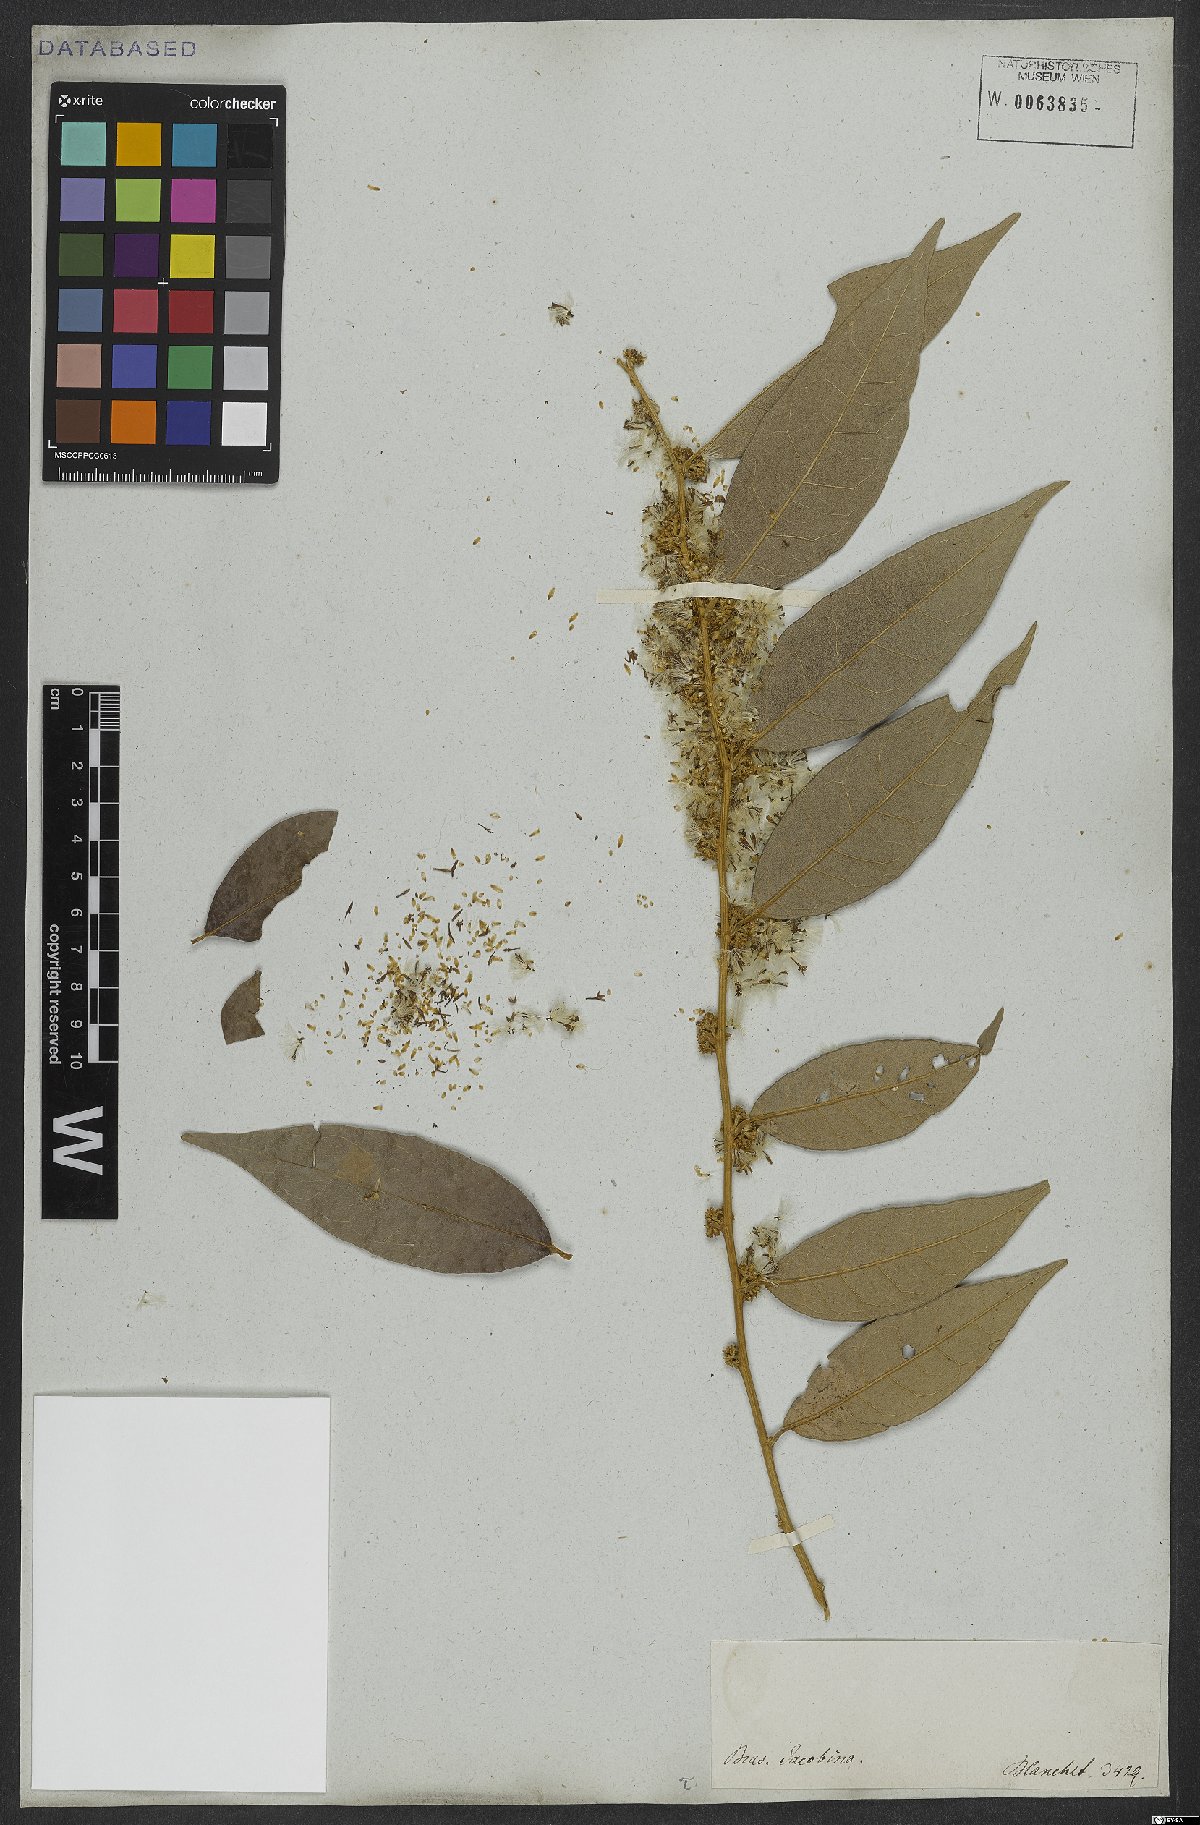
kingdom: Plantae
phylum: Tracheophyta
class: Magnoliopsida
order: Asterales
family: Asteraceae
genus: Piptocarpha
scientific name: Piptocarpha leprosa
